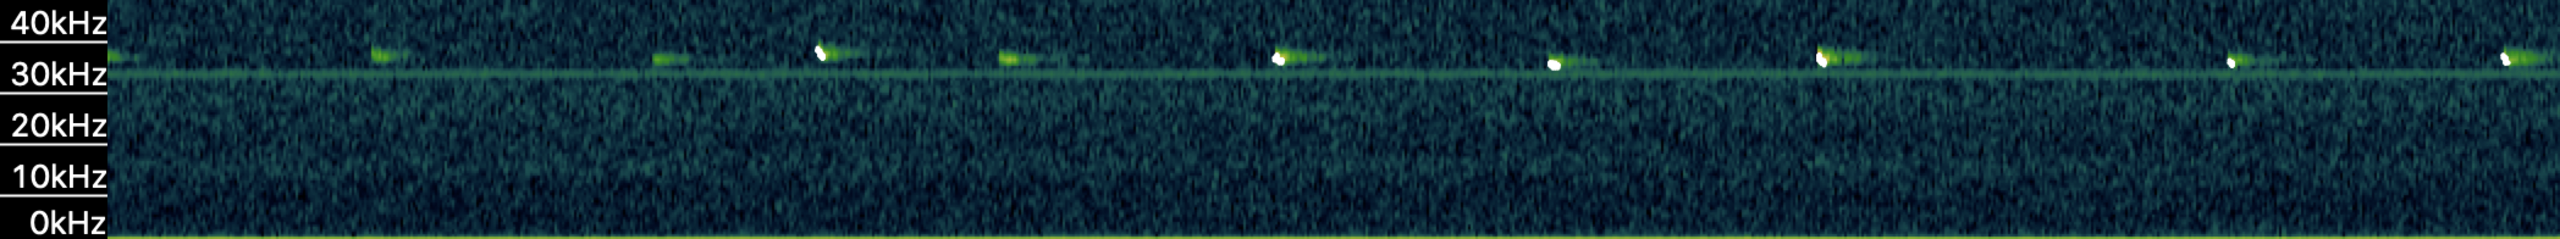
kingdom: Animalia
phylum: Chordata
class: Mammalia
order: Chiroptera
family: Vespertilionidae
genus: Pipistrellus
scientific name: Pipistrellus nathusii
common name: Troldflagermus
